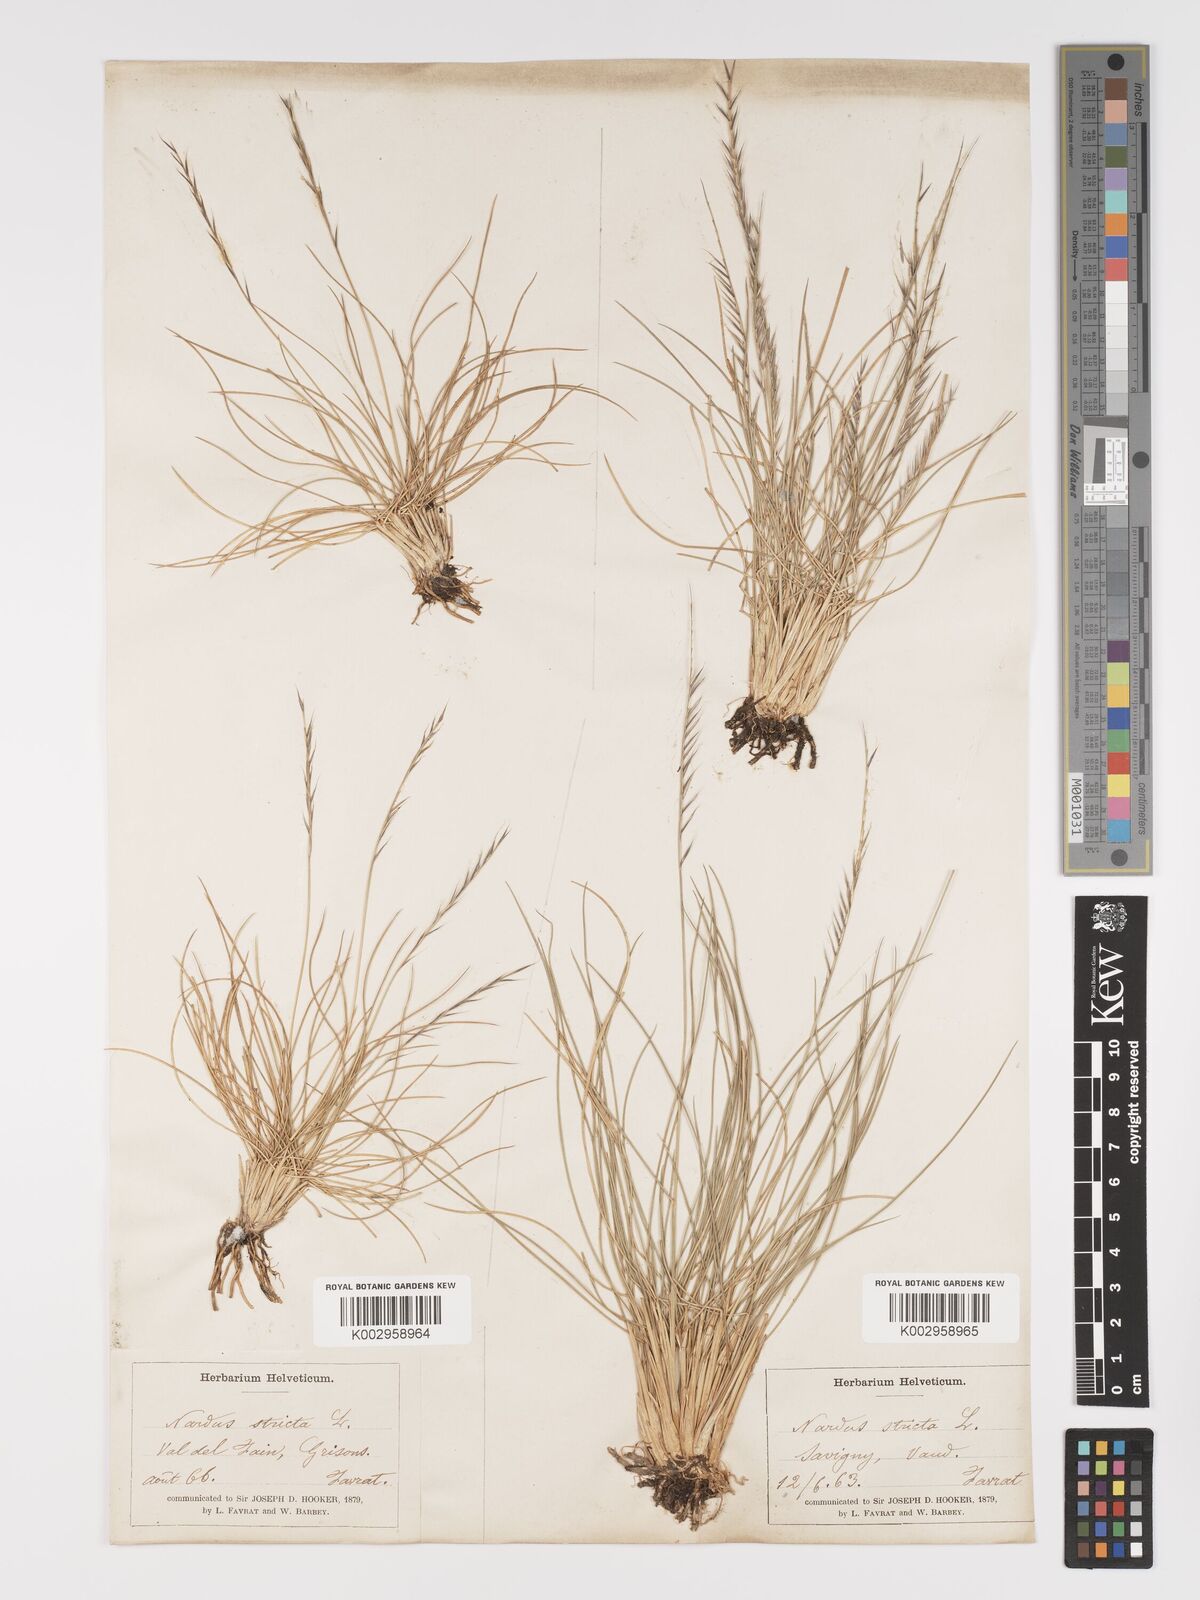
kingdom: Plantae
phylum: Tracheophyta
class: Liliopsida
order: Poales
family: Poaceae
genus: Nardus
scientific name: Nardus stricta
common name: Mat-grass
